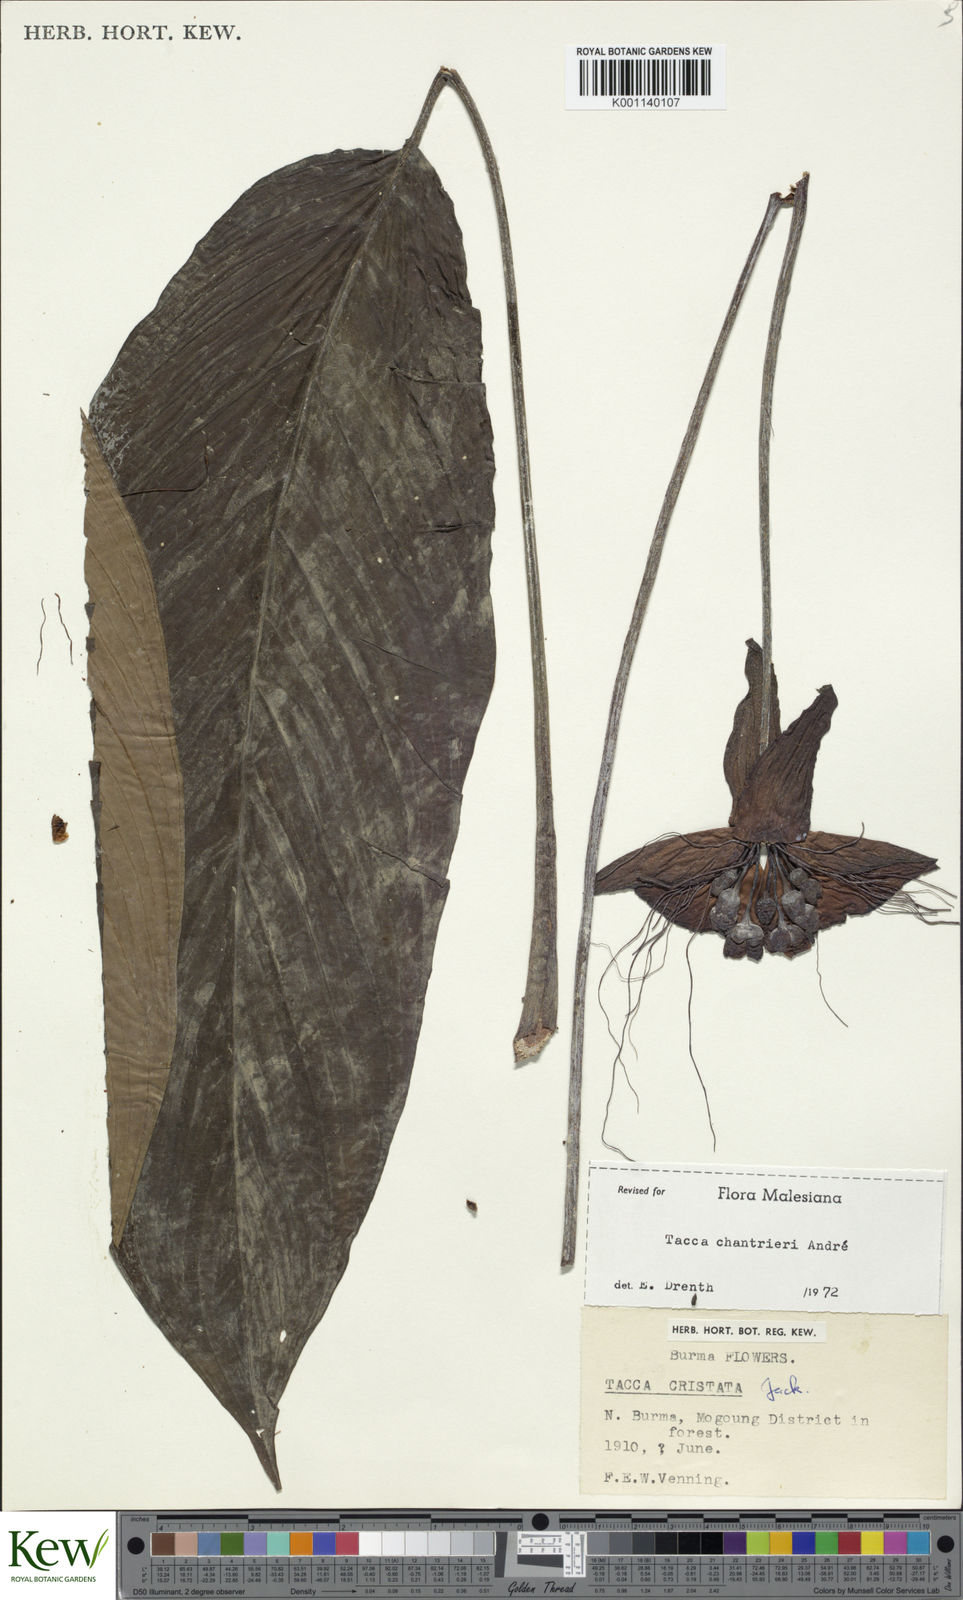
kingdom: Plantae
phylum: Tracheophyta
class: Liliopsida
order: Dioscoreales
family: Dioscoreaceae
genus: Tacca
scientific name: Tacca
